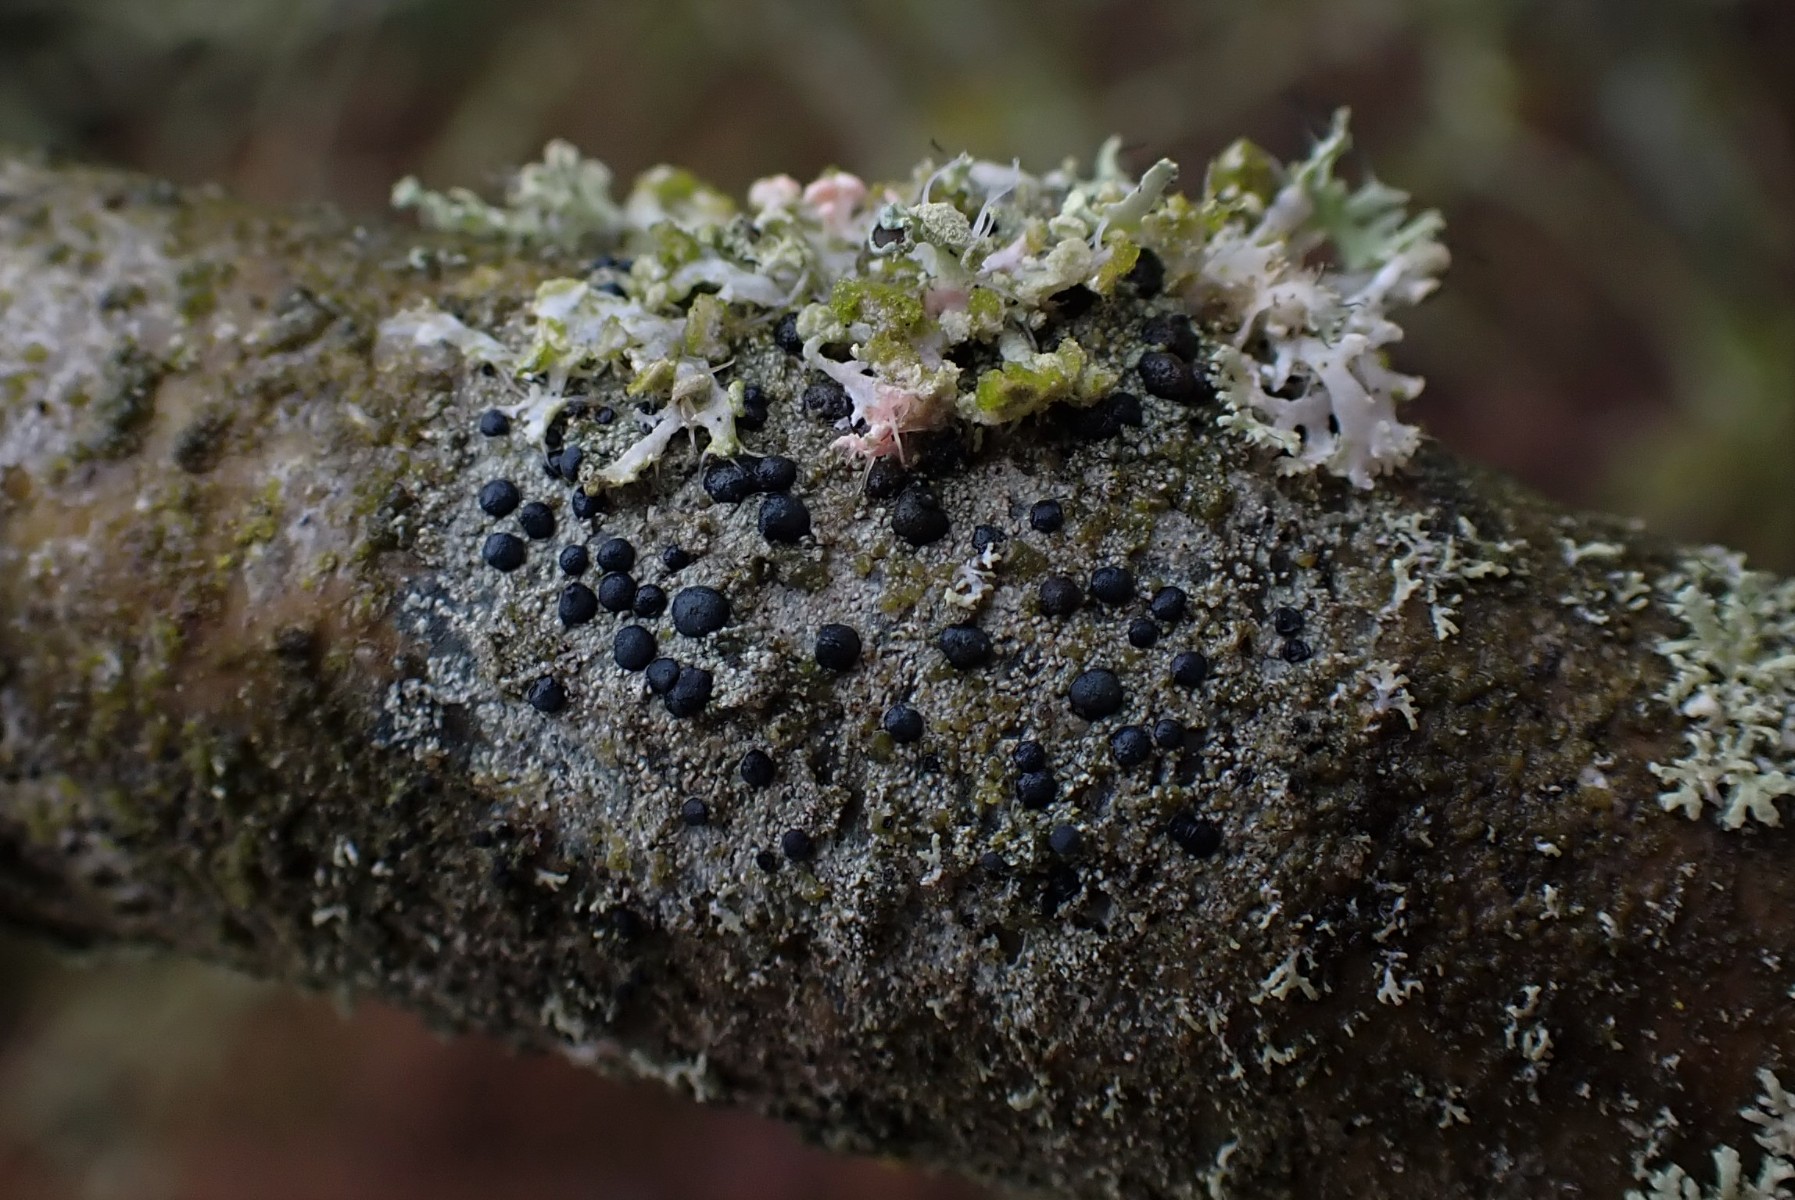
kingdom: Fungi
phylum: Ascomycota
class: Lecanoromycetes
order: Lecanorales
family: Lecanoraceae
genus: Lecidella
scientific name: Lecidella elaeochroma
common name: grågrøn skivelav
